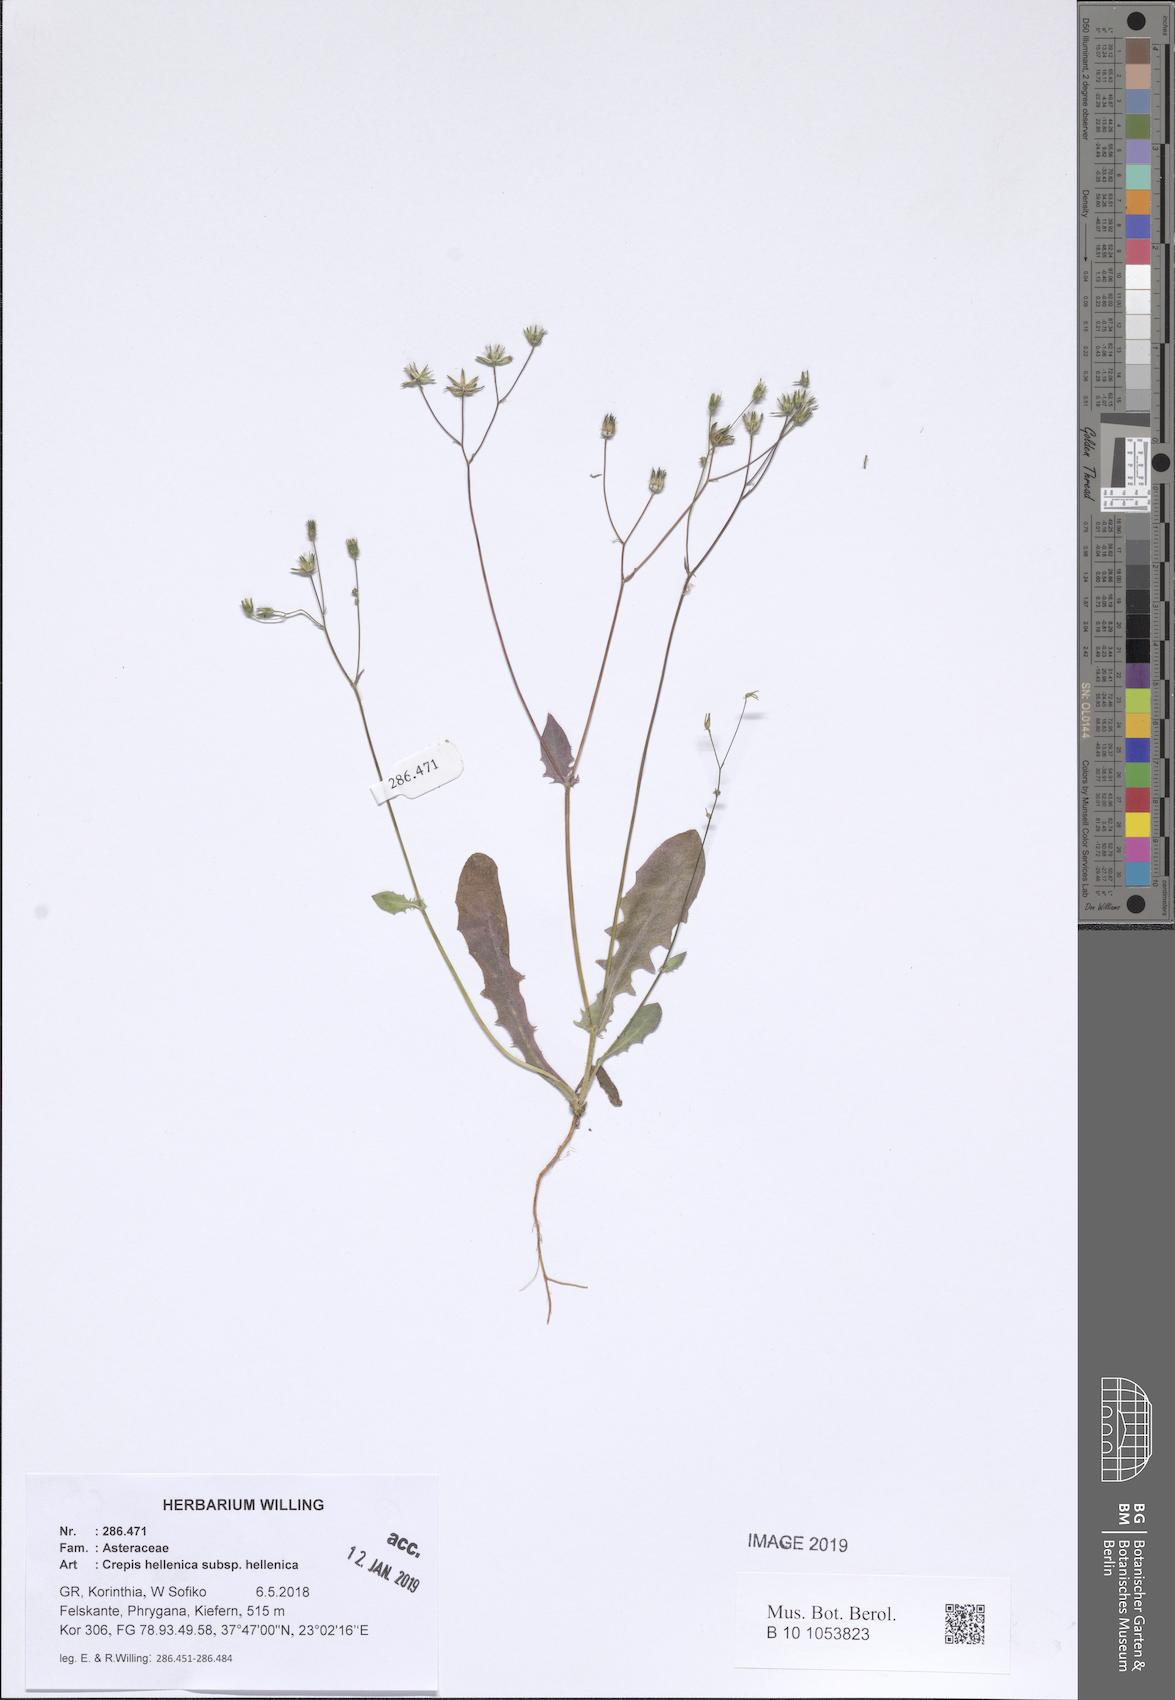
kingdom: Plantae
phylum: Tracheophyta
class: Magnoliopsida
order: Asterales
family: Asteraceae
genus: Crepis
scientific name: Crepis neglecta
